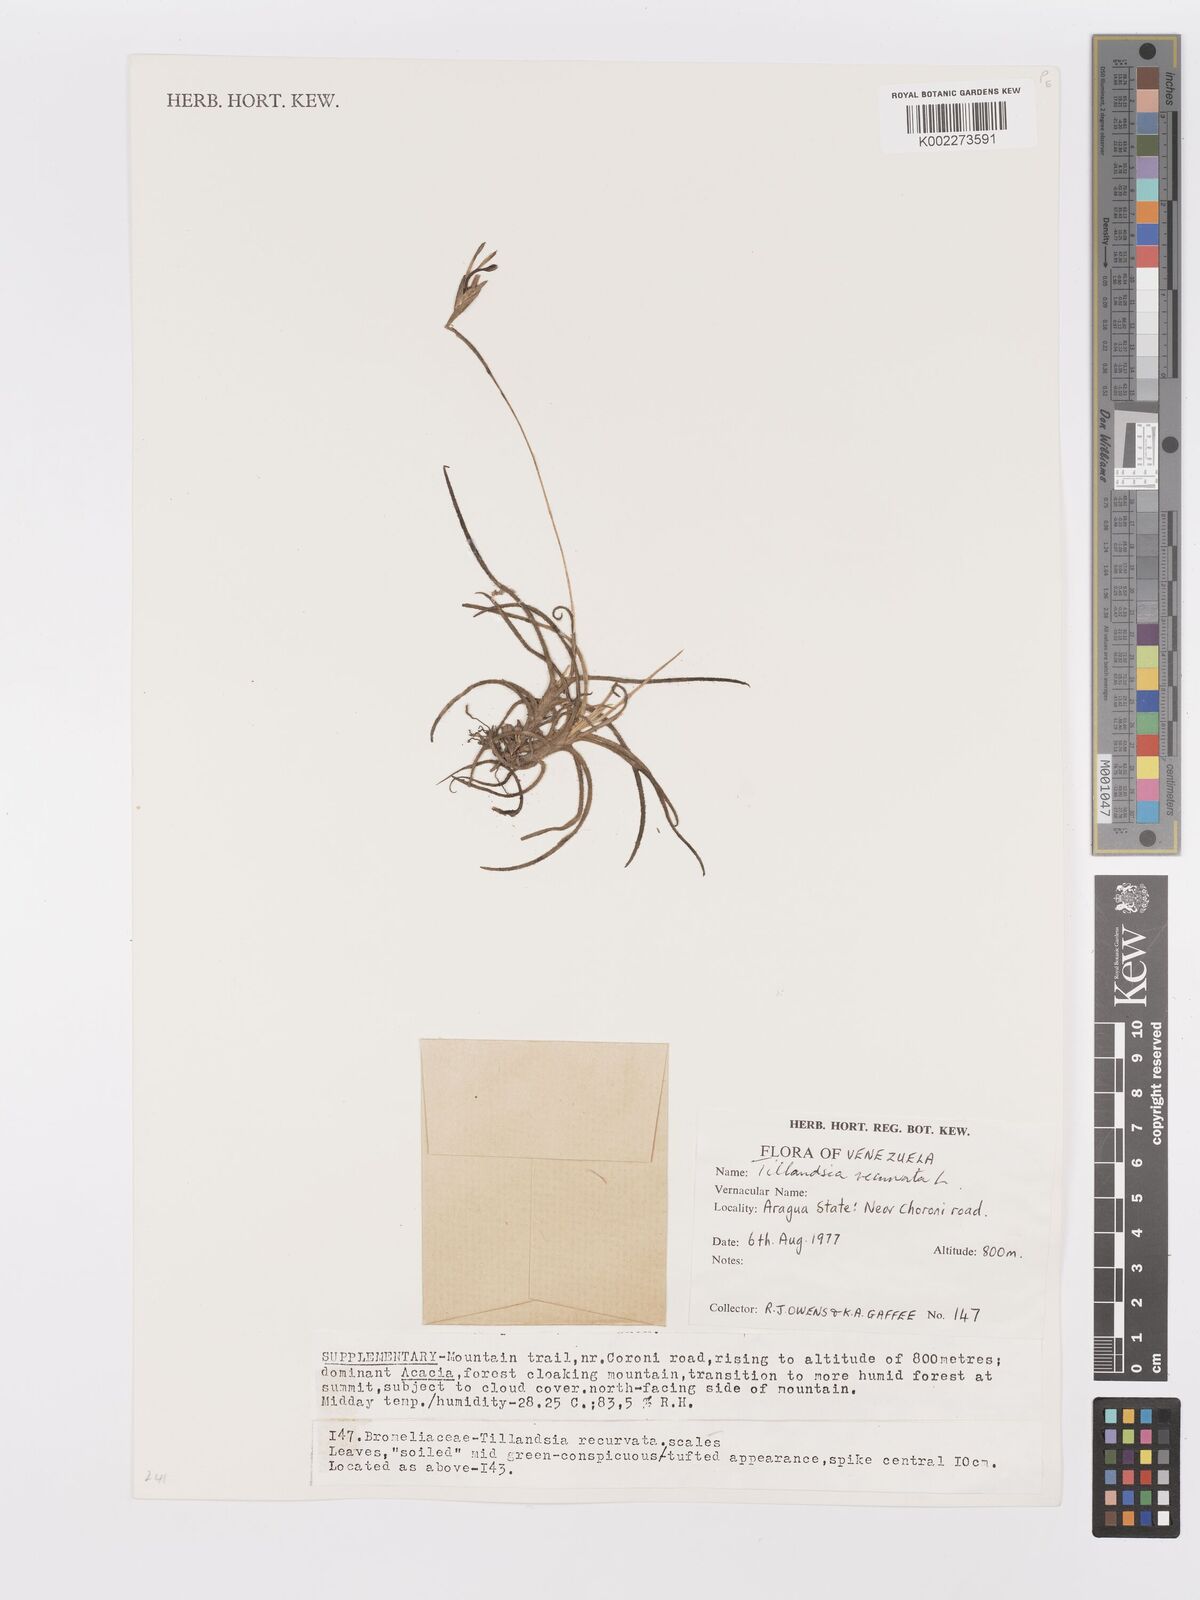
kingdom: Plantae
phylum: Tracheophyta
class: Liliopsida
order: Poales
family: Bromeliaceae
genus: Tillandsia
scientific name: Tillandsia recurvata
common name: Small ballmoss
